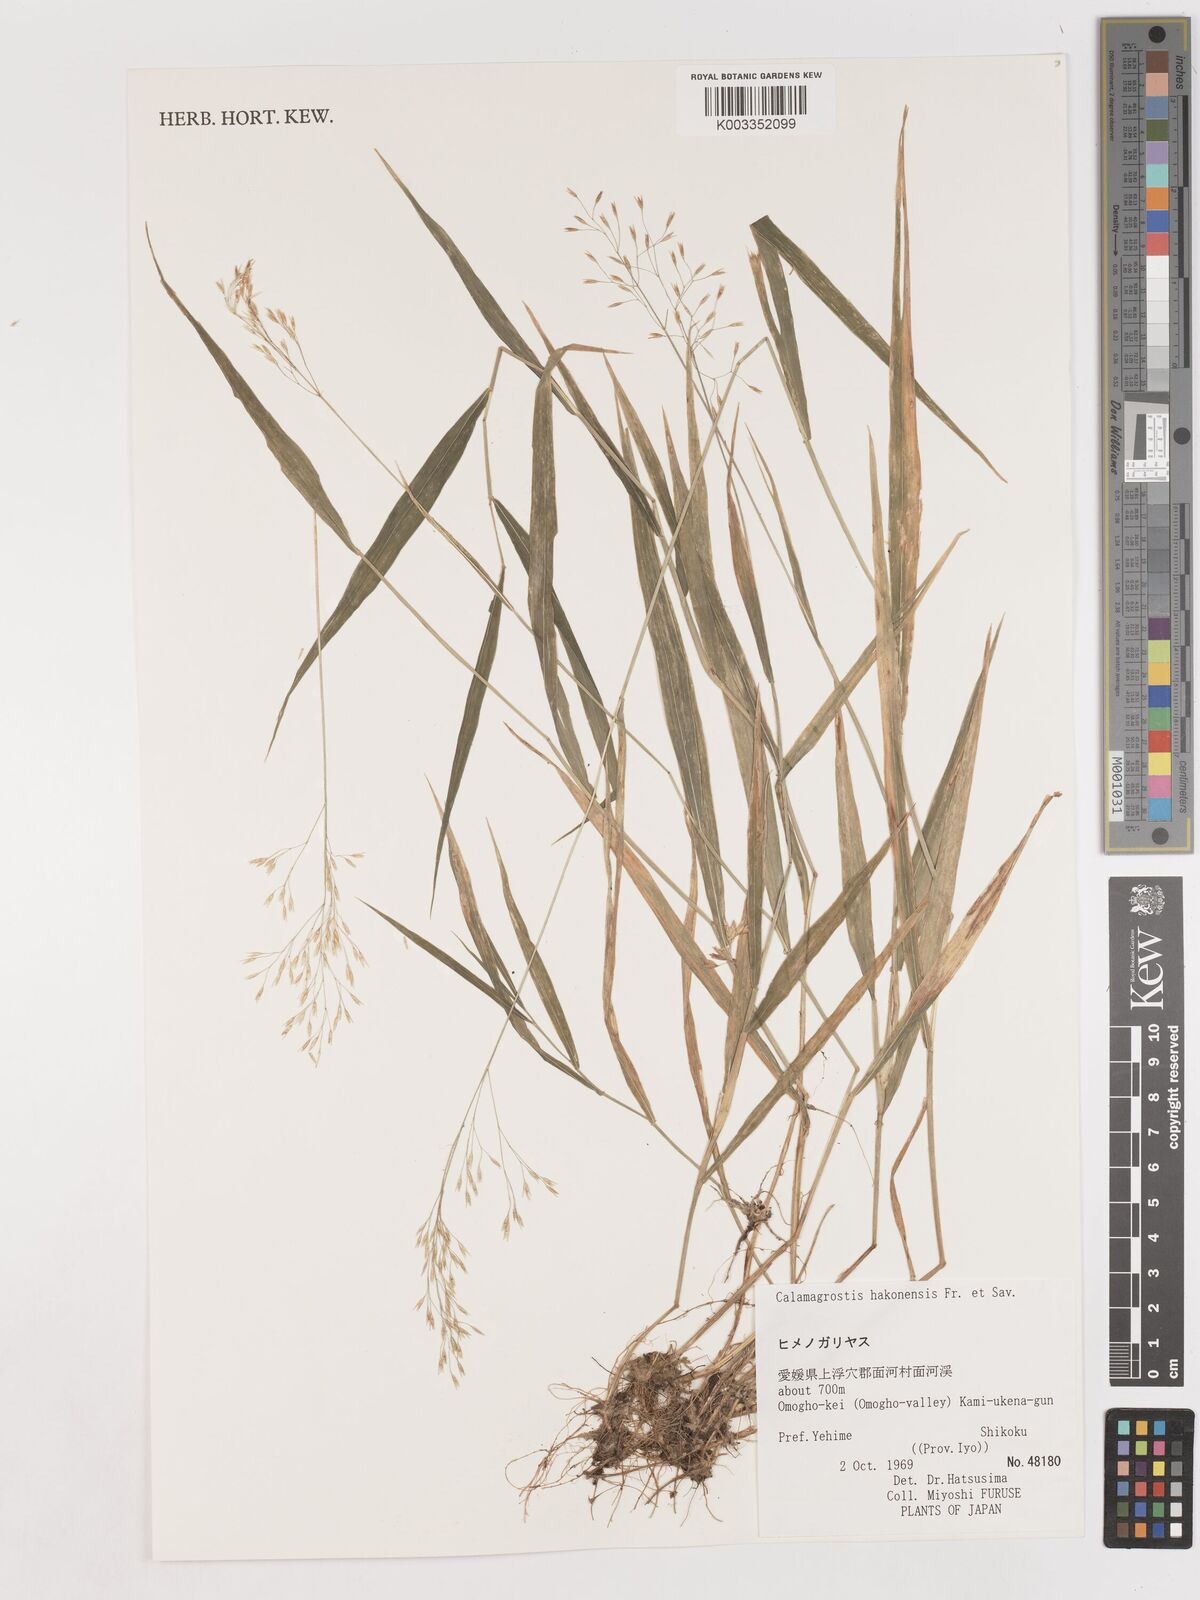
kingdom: Plantae
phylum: Tracheophyta
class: Liliopsida
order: Poales
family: Poaceae
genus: Calamagrostis
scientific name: Calamagrostis hakonensis
